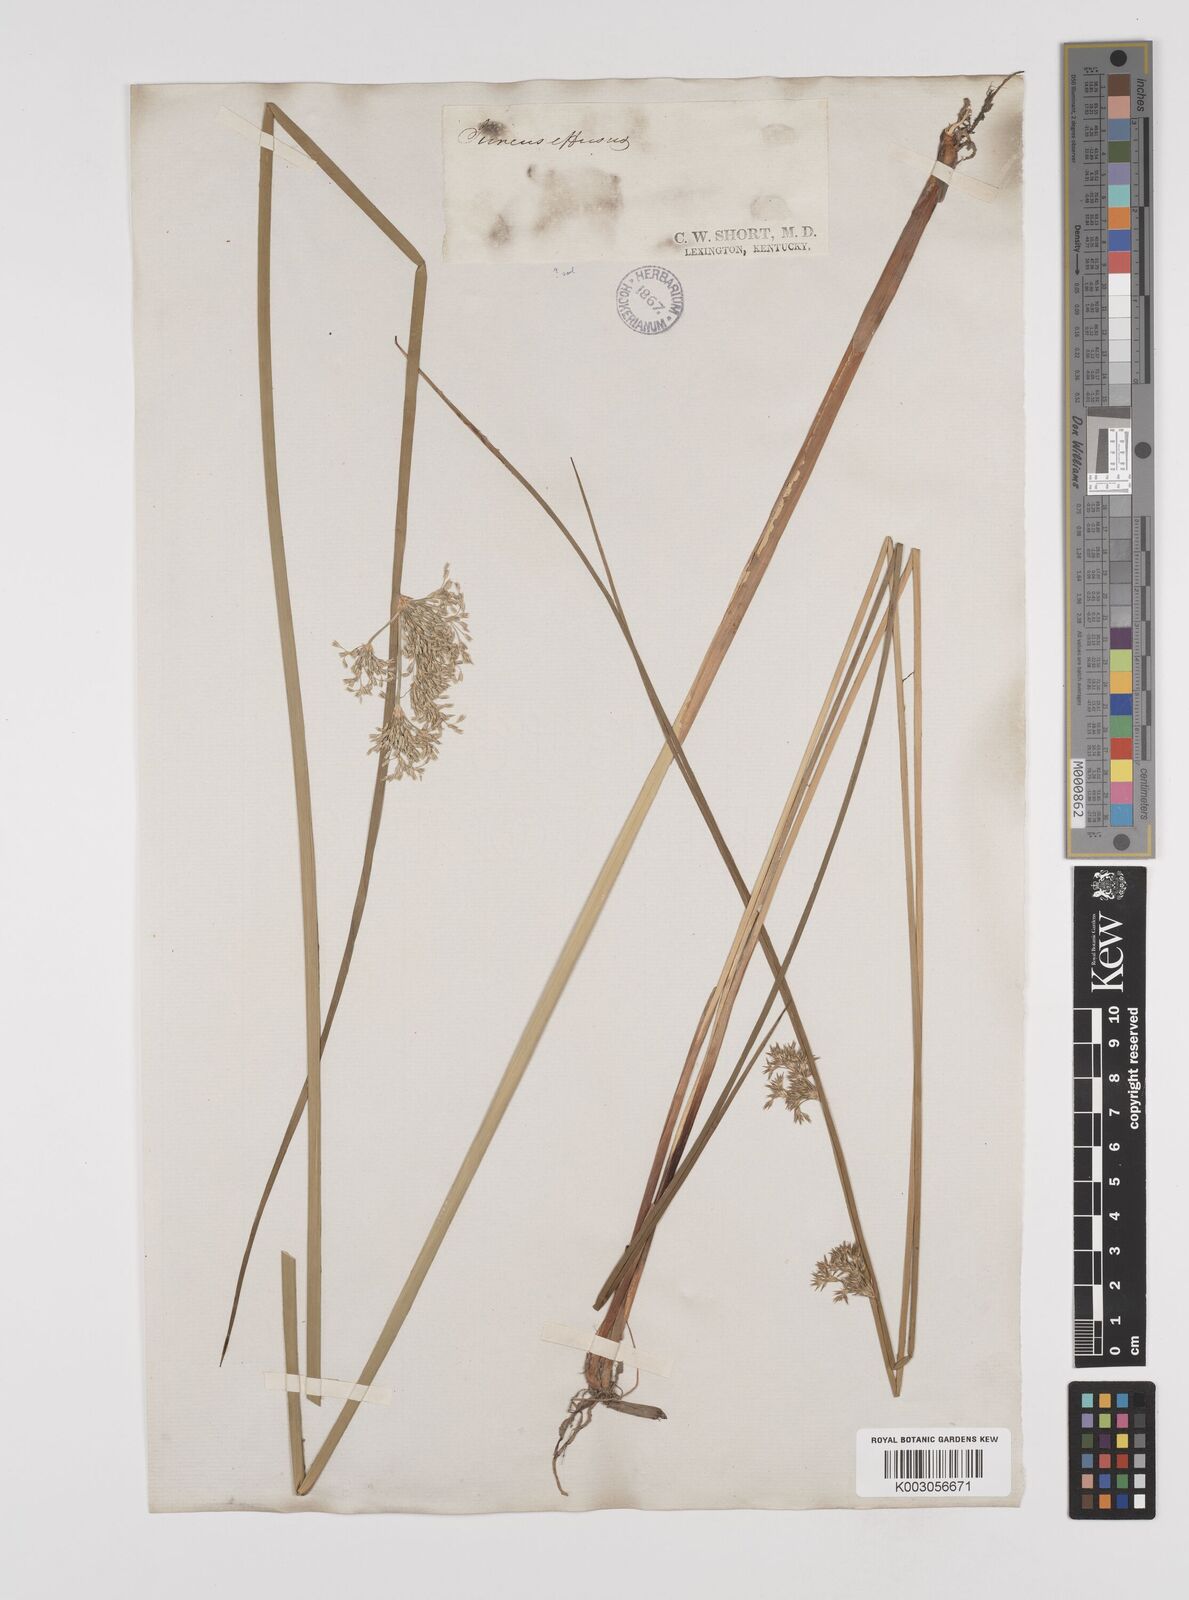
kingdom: Plantae
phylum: Tracheophyta
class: Liliopsida
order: Poales
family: Juncaceae
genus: Juncus
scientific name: Juncus effusus
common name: Soft rush
